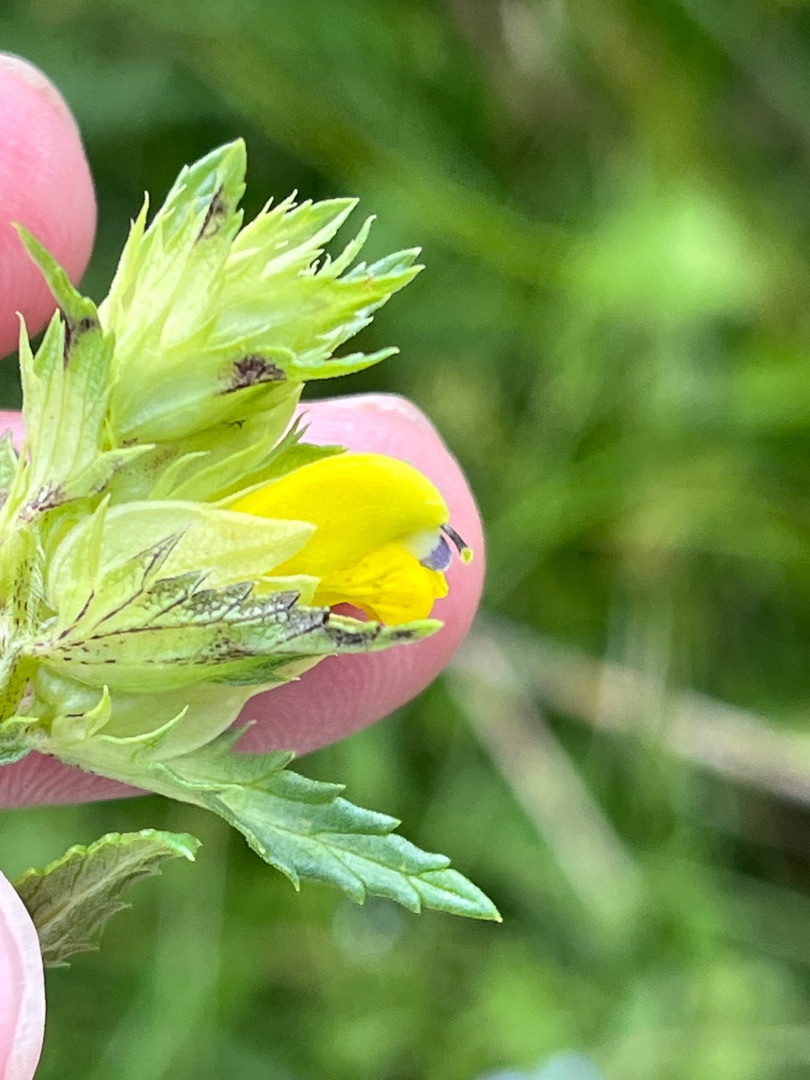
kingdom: Plantae
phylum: Tracheophyta
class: Magnoliopsida
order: Lamiales
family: Orobanchaceae
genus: Rhinanthus
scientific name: Rhinanthus
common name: Stor skjaller
